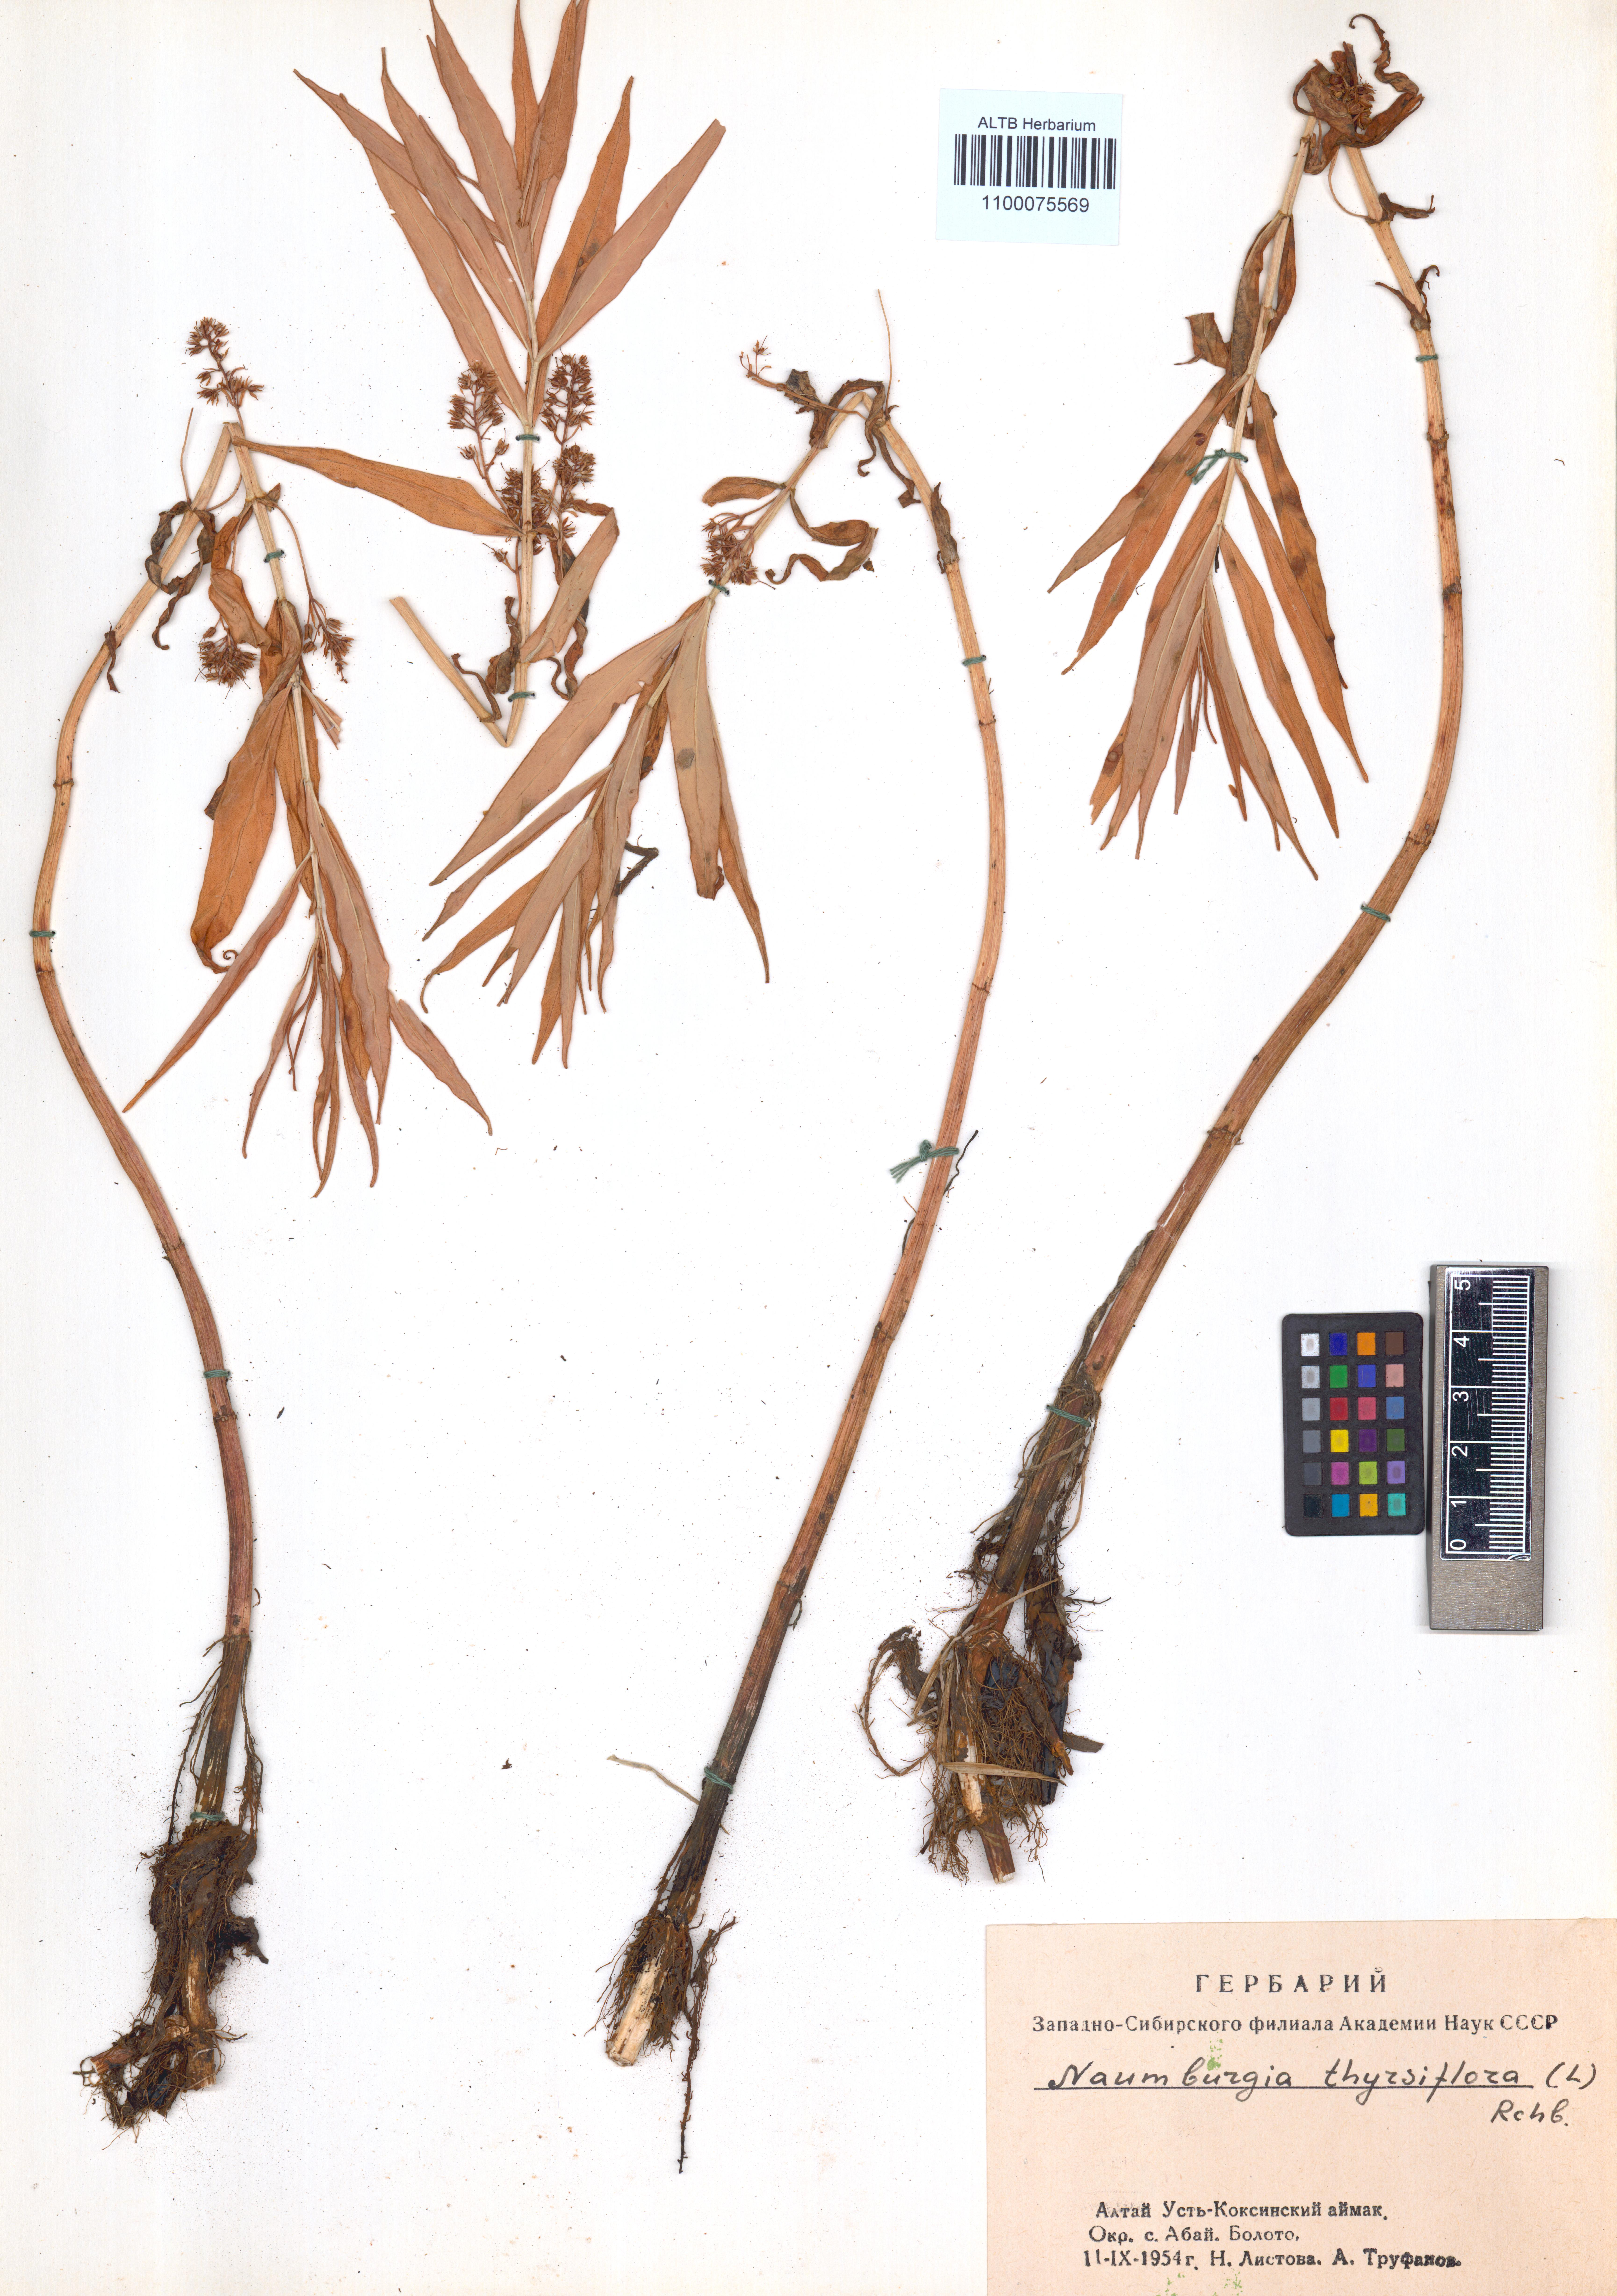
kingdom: Plantae
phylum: Tracheophyta
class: Magnoliopsida
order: Ericales
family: Primulaceae
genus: Lysimachia
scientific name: Lysimachia thyrsiflora
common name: Tufted loosestrife
